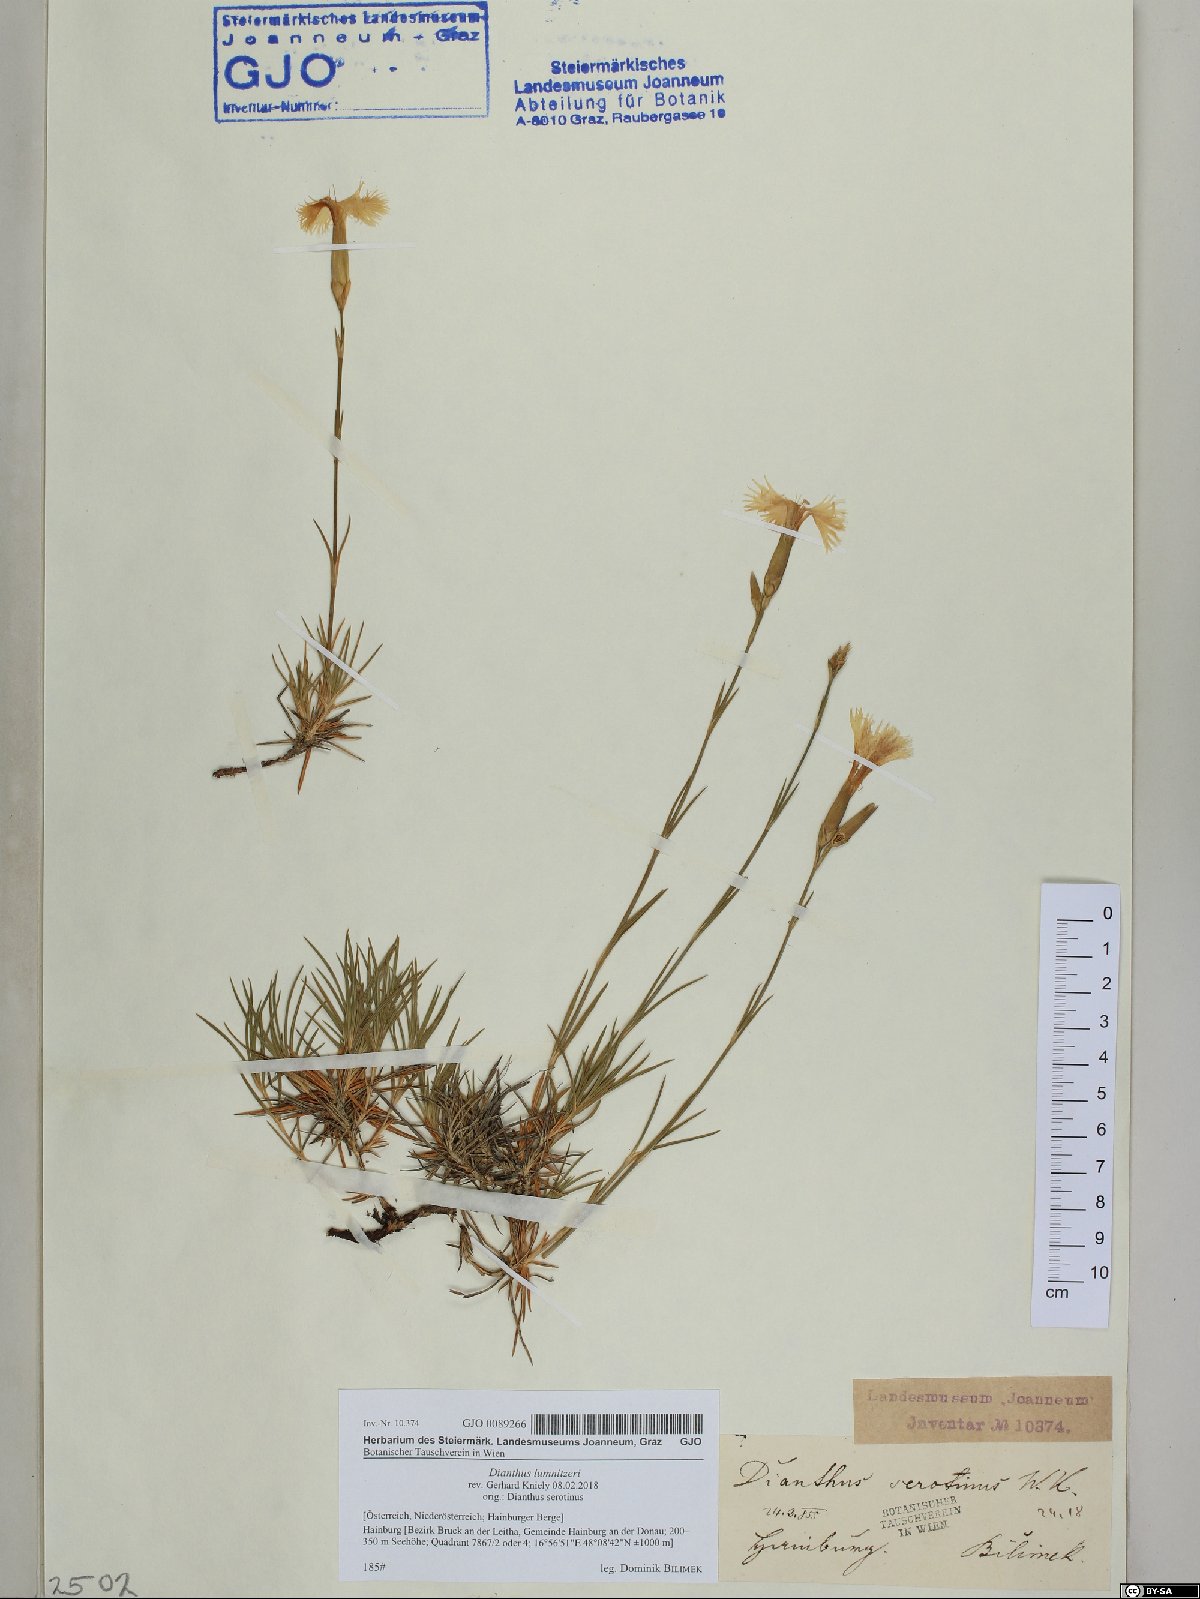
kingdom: Plantae
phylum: Tracheophyta
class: Magnoliopsida
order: Caryophyllales
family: Caryophyllaceae
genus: Dianthus
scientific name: Dianthus praecox
